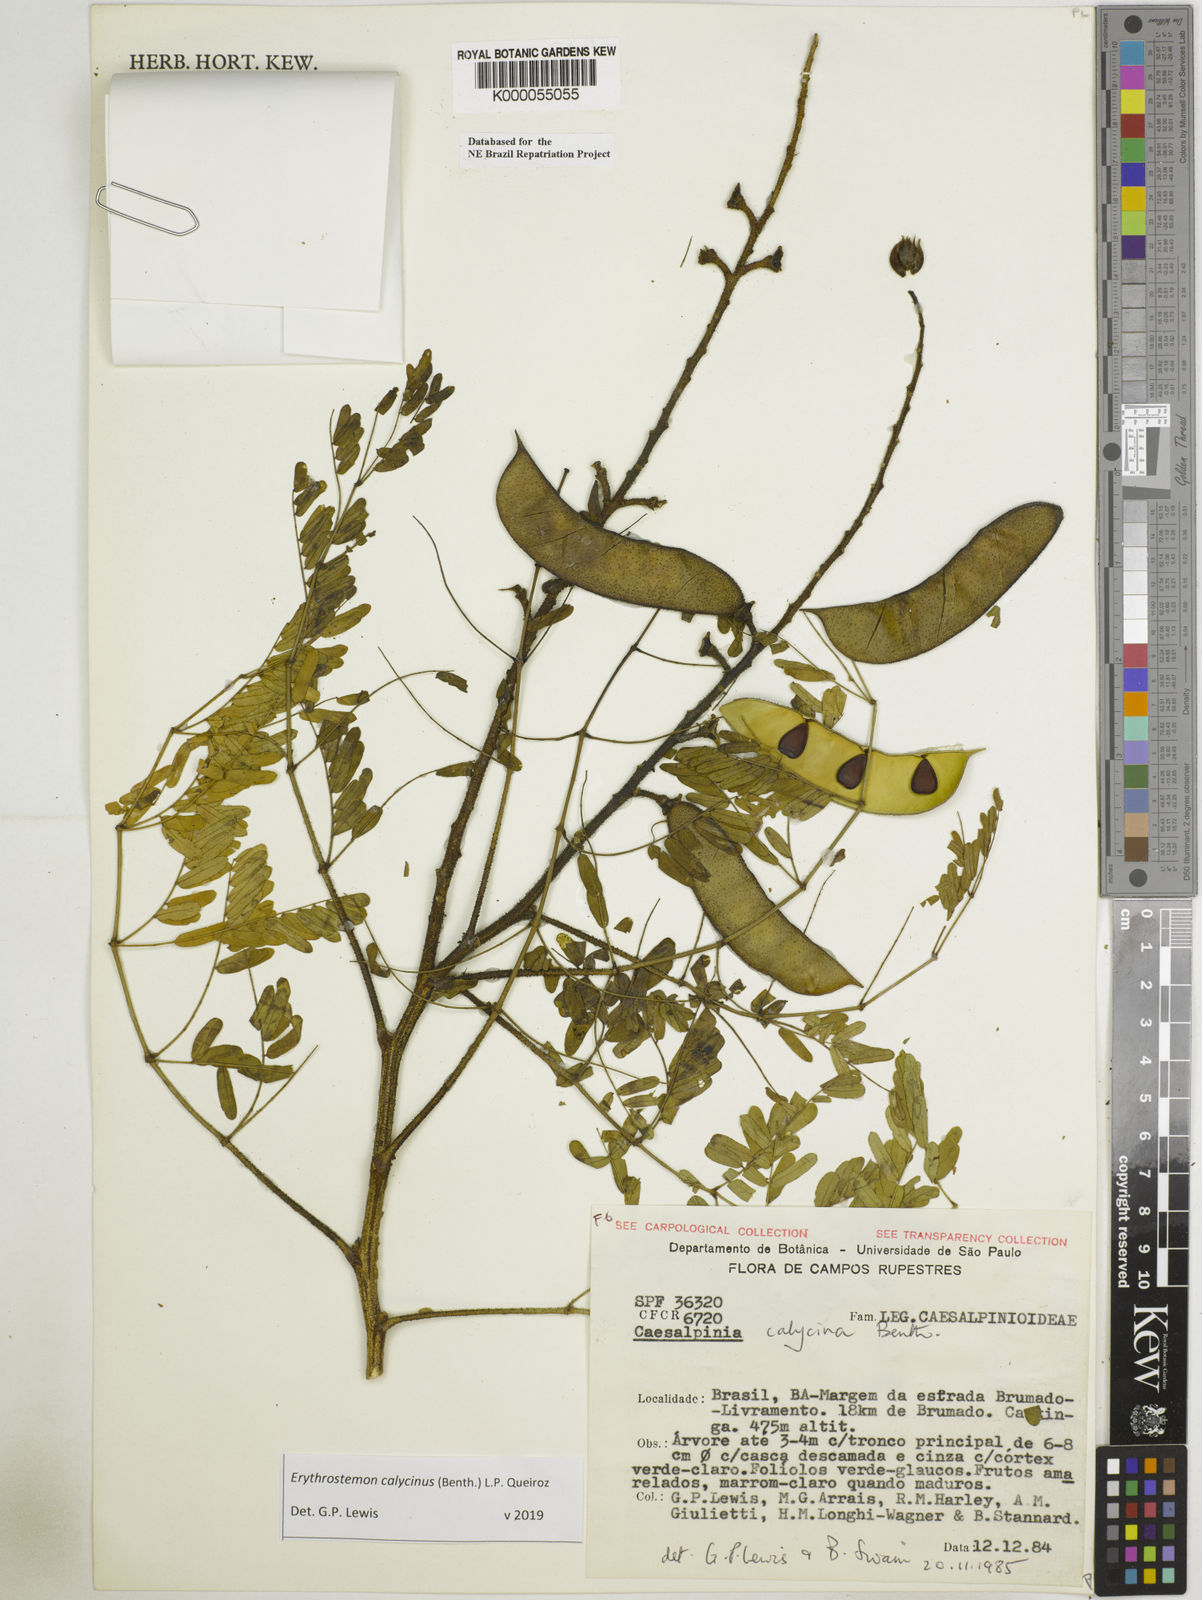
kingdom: Plantae
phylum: Tracheophyta
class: Magnoliopsida
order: Fabales
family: Fabaceae
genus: Erythrostemon
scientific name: Erythrostemon calycinus
